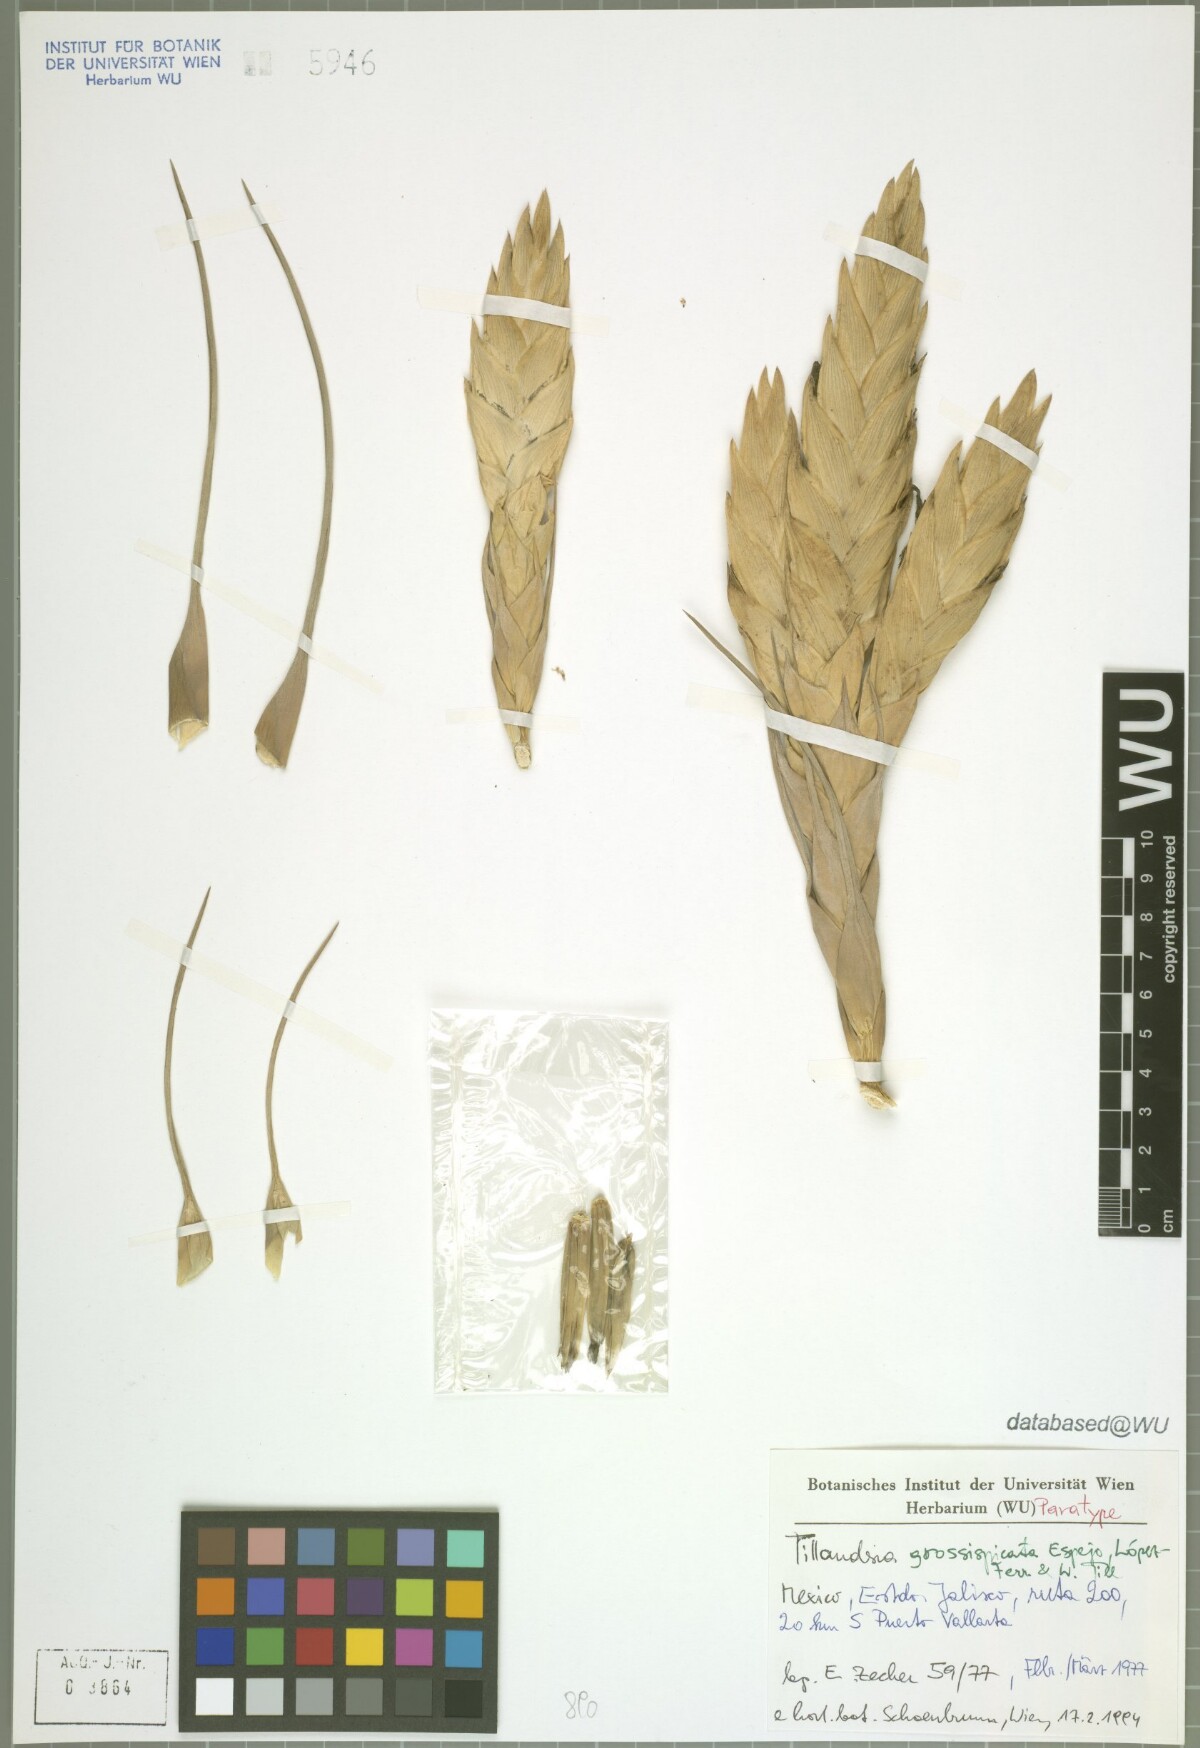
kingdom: Plantae
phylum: Tracheophyta
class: Liliopsida
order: Poales
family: Bromeliaceae
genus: Tillandsia
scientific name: Tillandsia grossispicata
